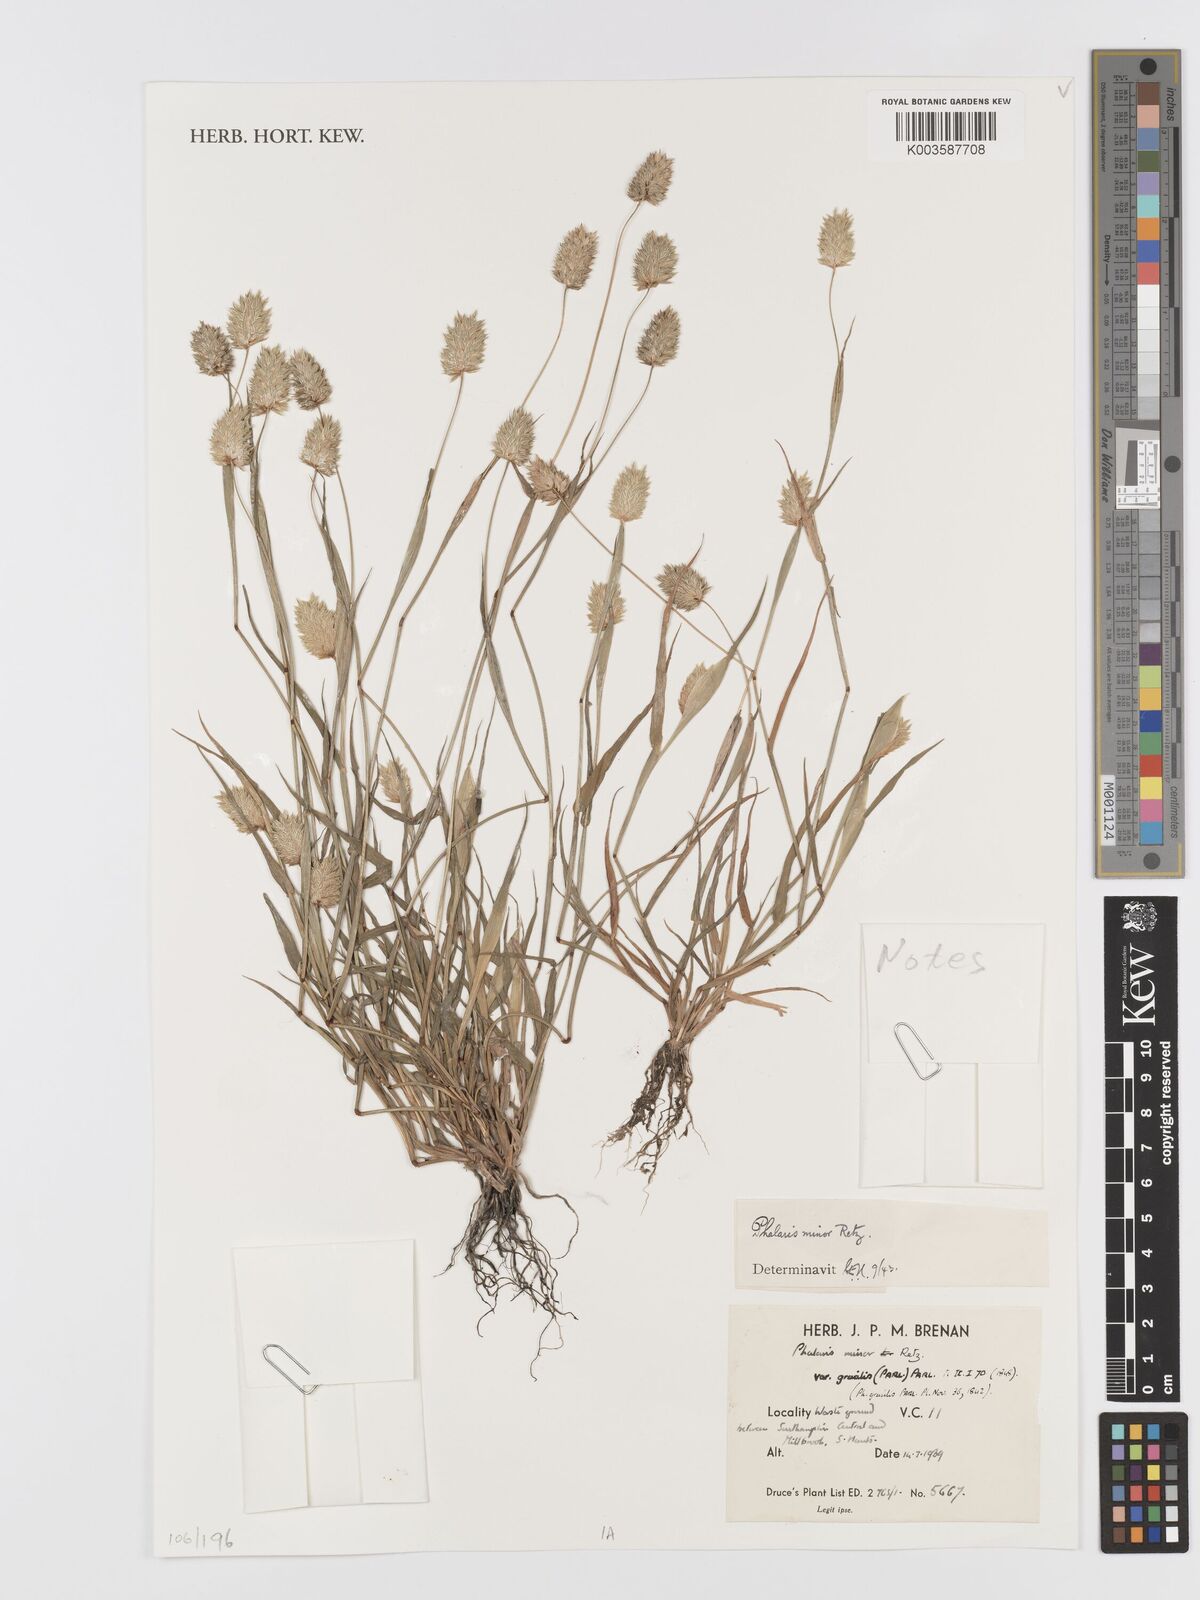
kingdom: Plantae
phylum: Tracheophyta
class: Liliopsida
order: Poales
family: Poaceae
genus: Phalaris
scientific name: Phalaris minor
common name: Littleseed canarygrass
